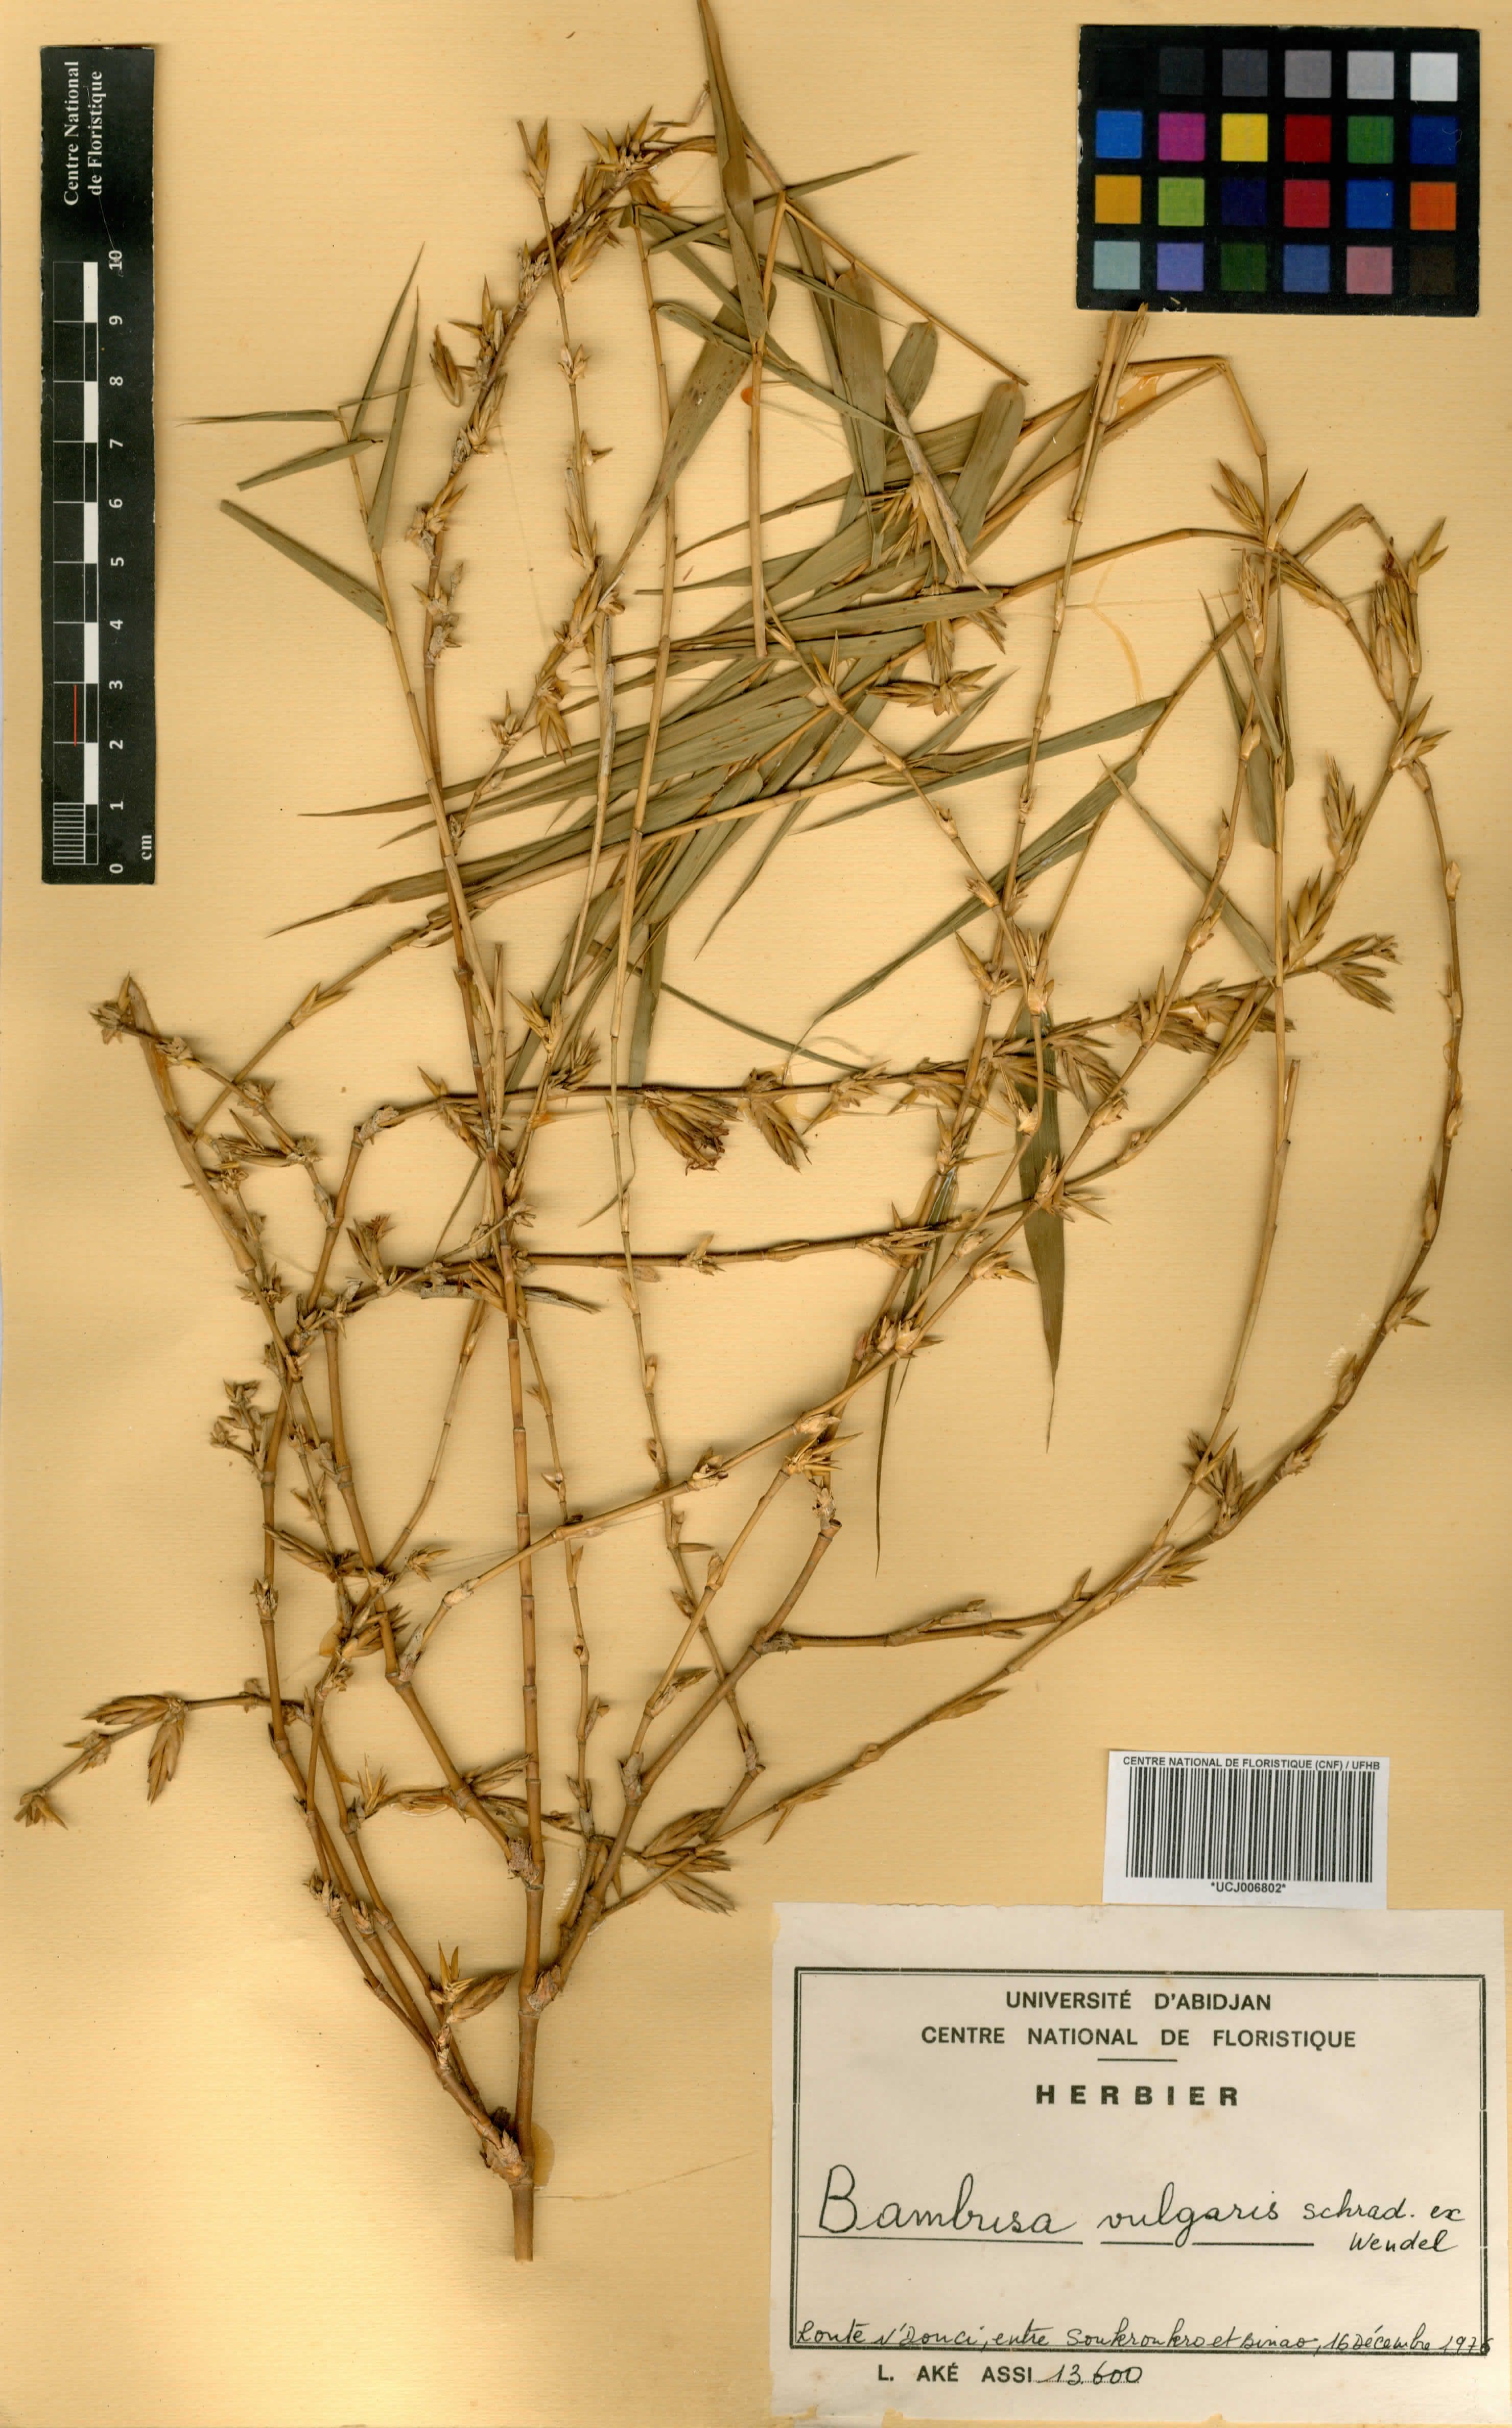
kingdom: Plantae
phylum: Tracheophyta
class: Liliopsida
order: Poales
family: Poaceae
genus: Bambusa
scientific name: Bambusa vulgaris
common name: Common bamboo
